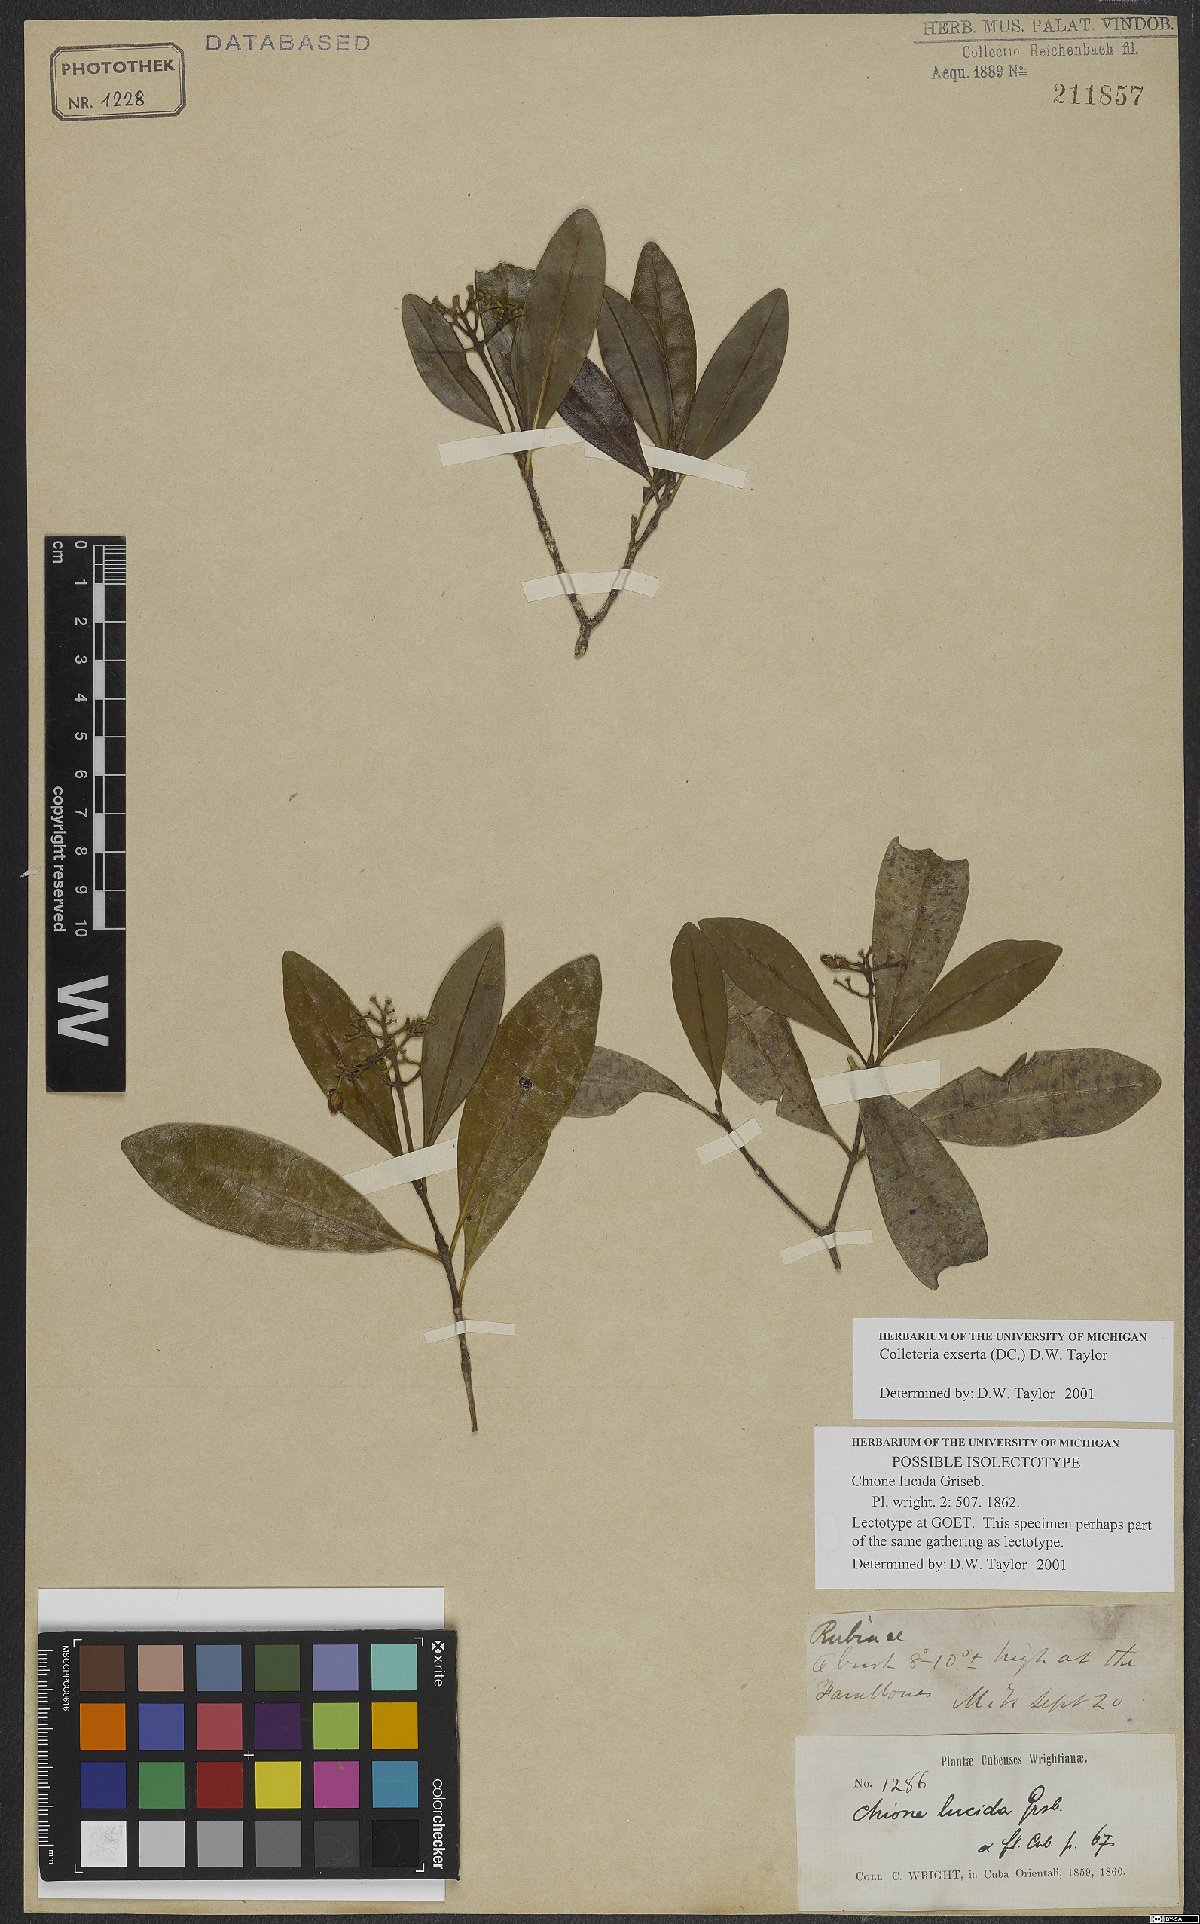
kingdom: Plantae
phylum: Tracheophyta
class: Magnoliopsida
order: Gentianales
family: Rubiaceae
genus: Wandersong
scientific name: Wandersong exserta
